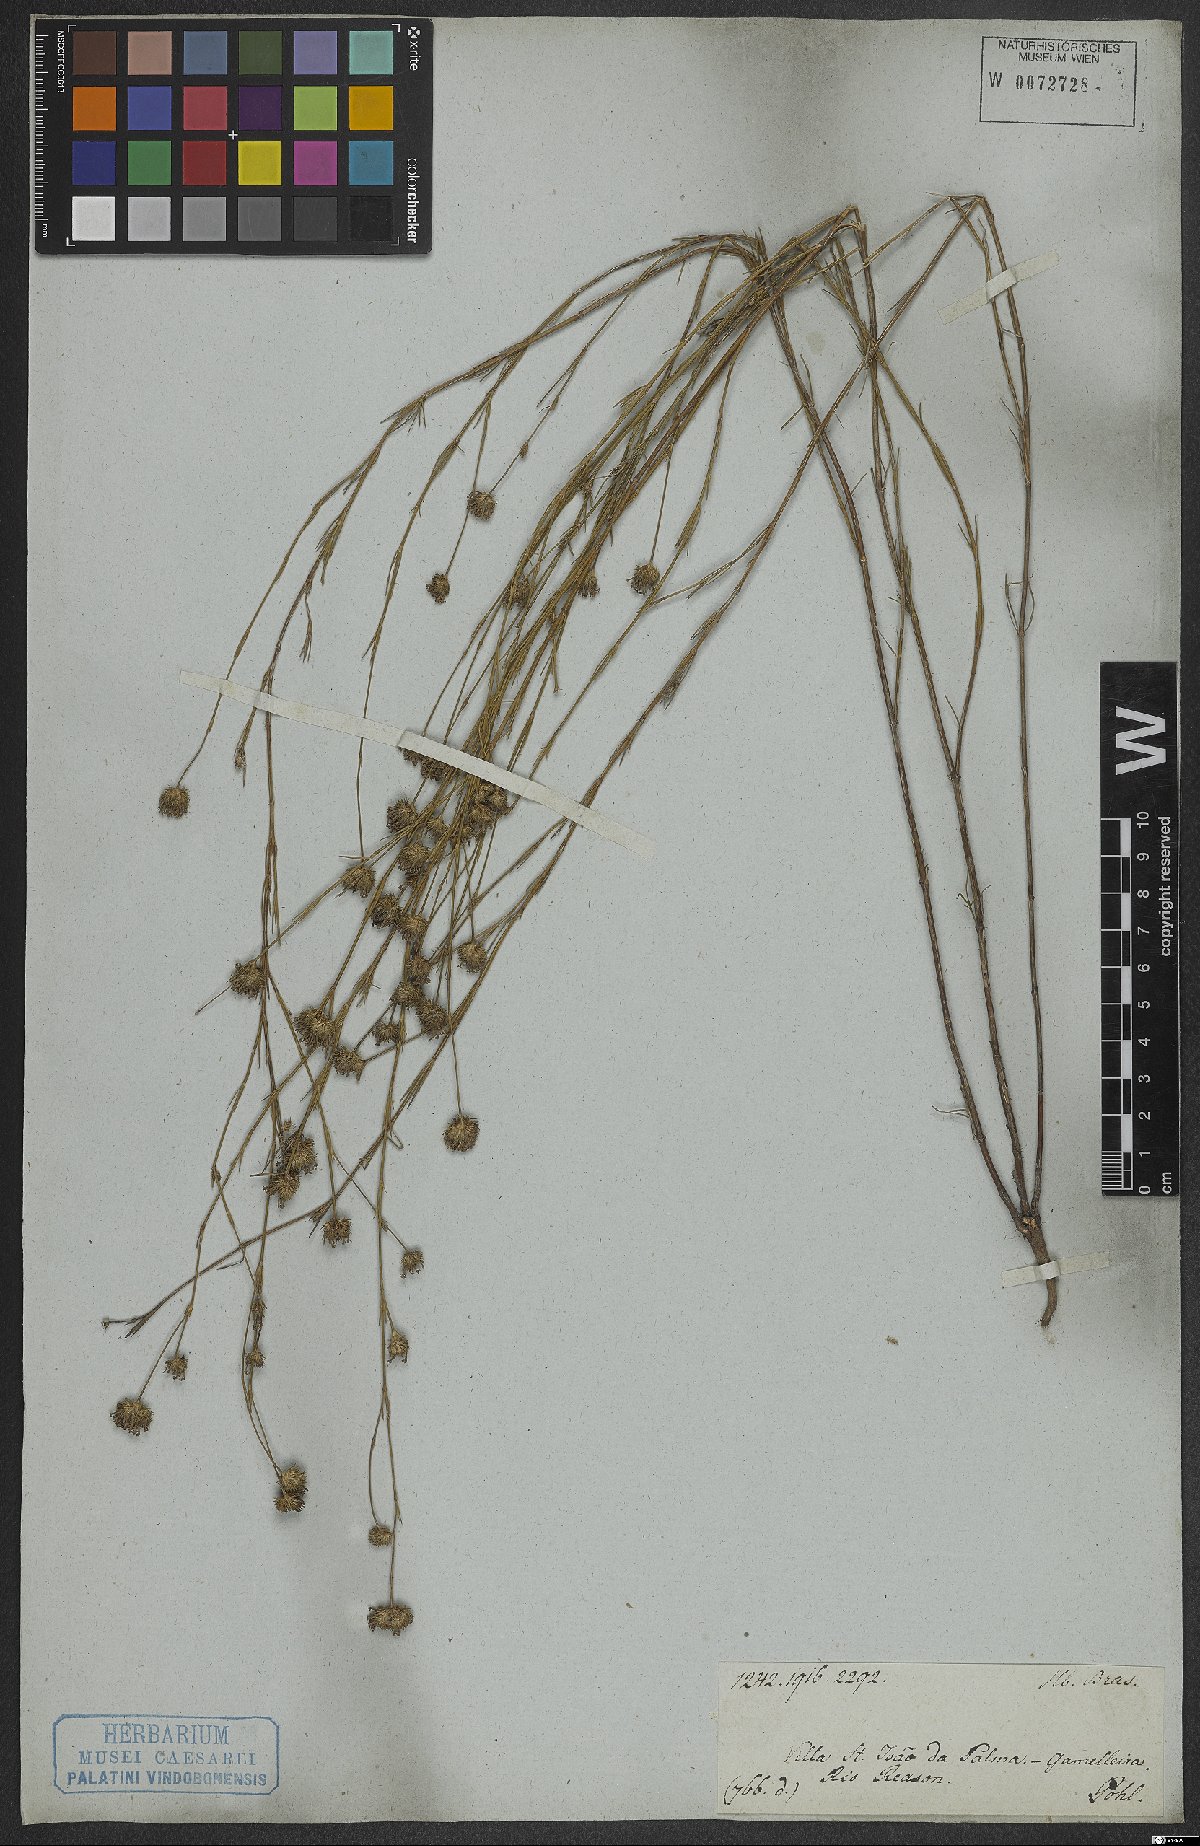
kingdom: Plantae
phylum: Tracheophyta
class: Magnoliopsida
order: Gentianales
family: Rubiaceae
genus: Spermacoce
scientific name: Spermacoce gracillima
